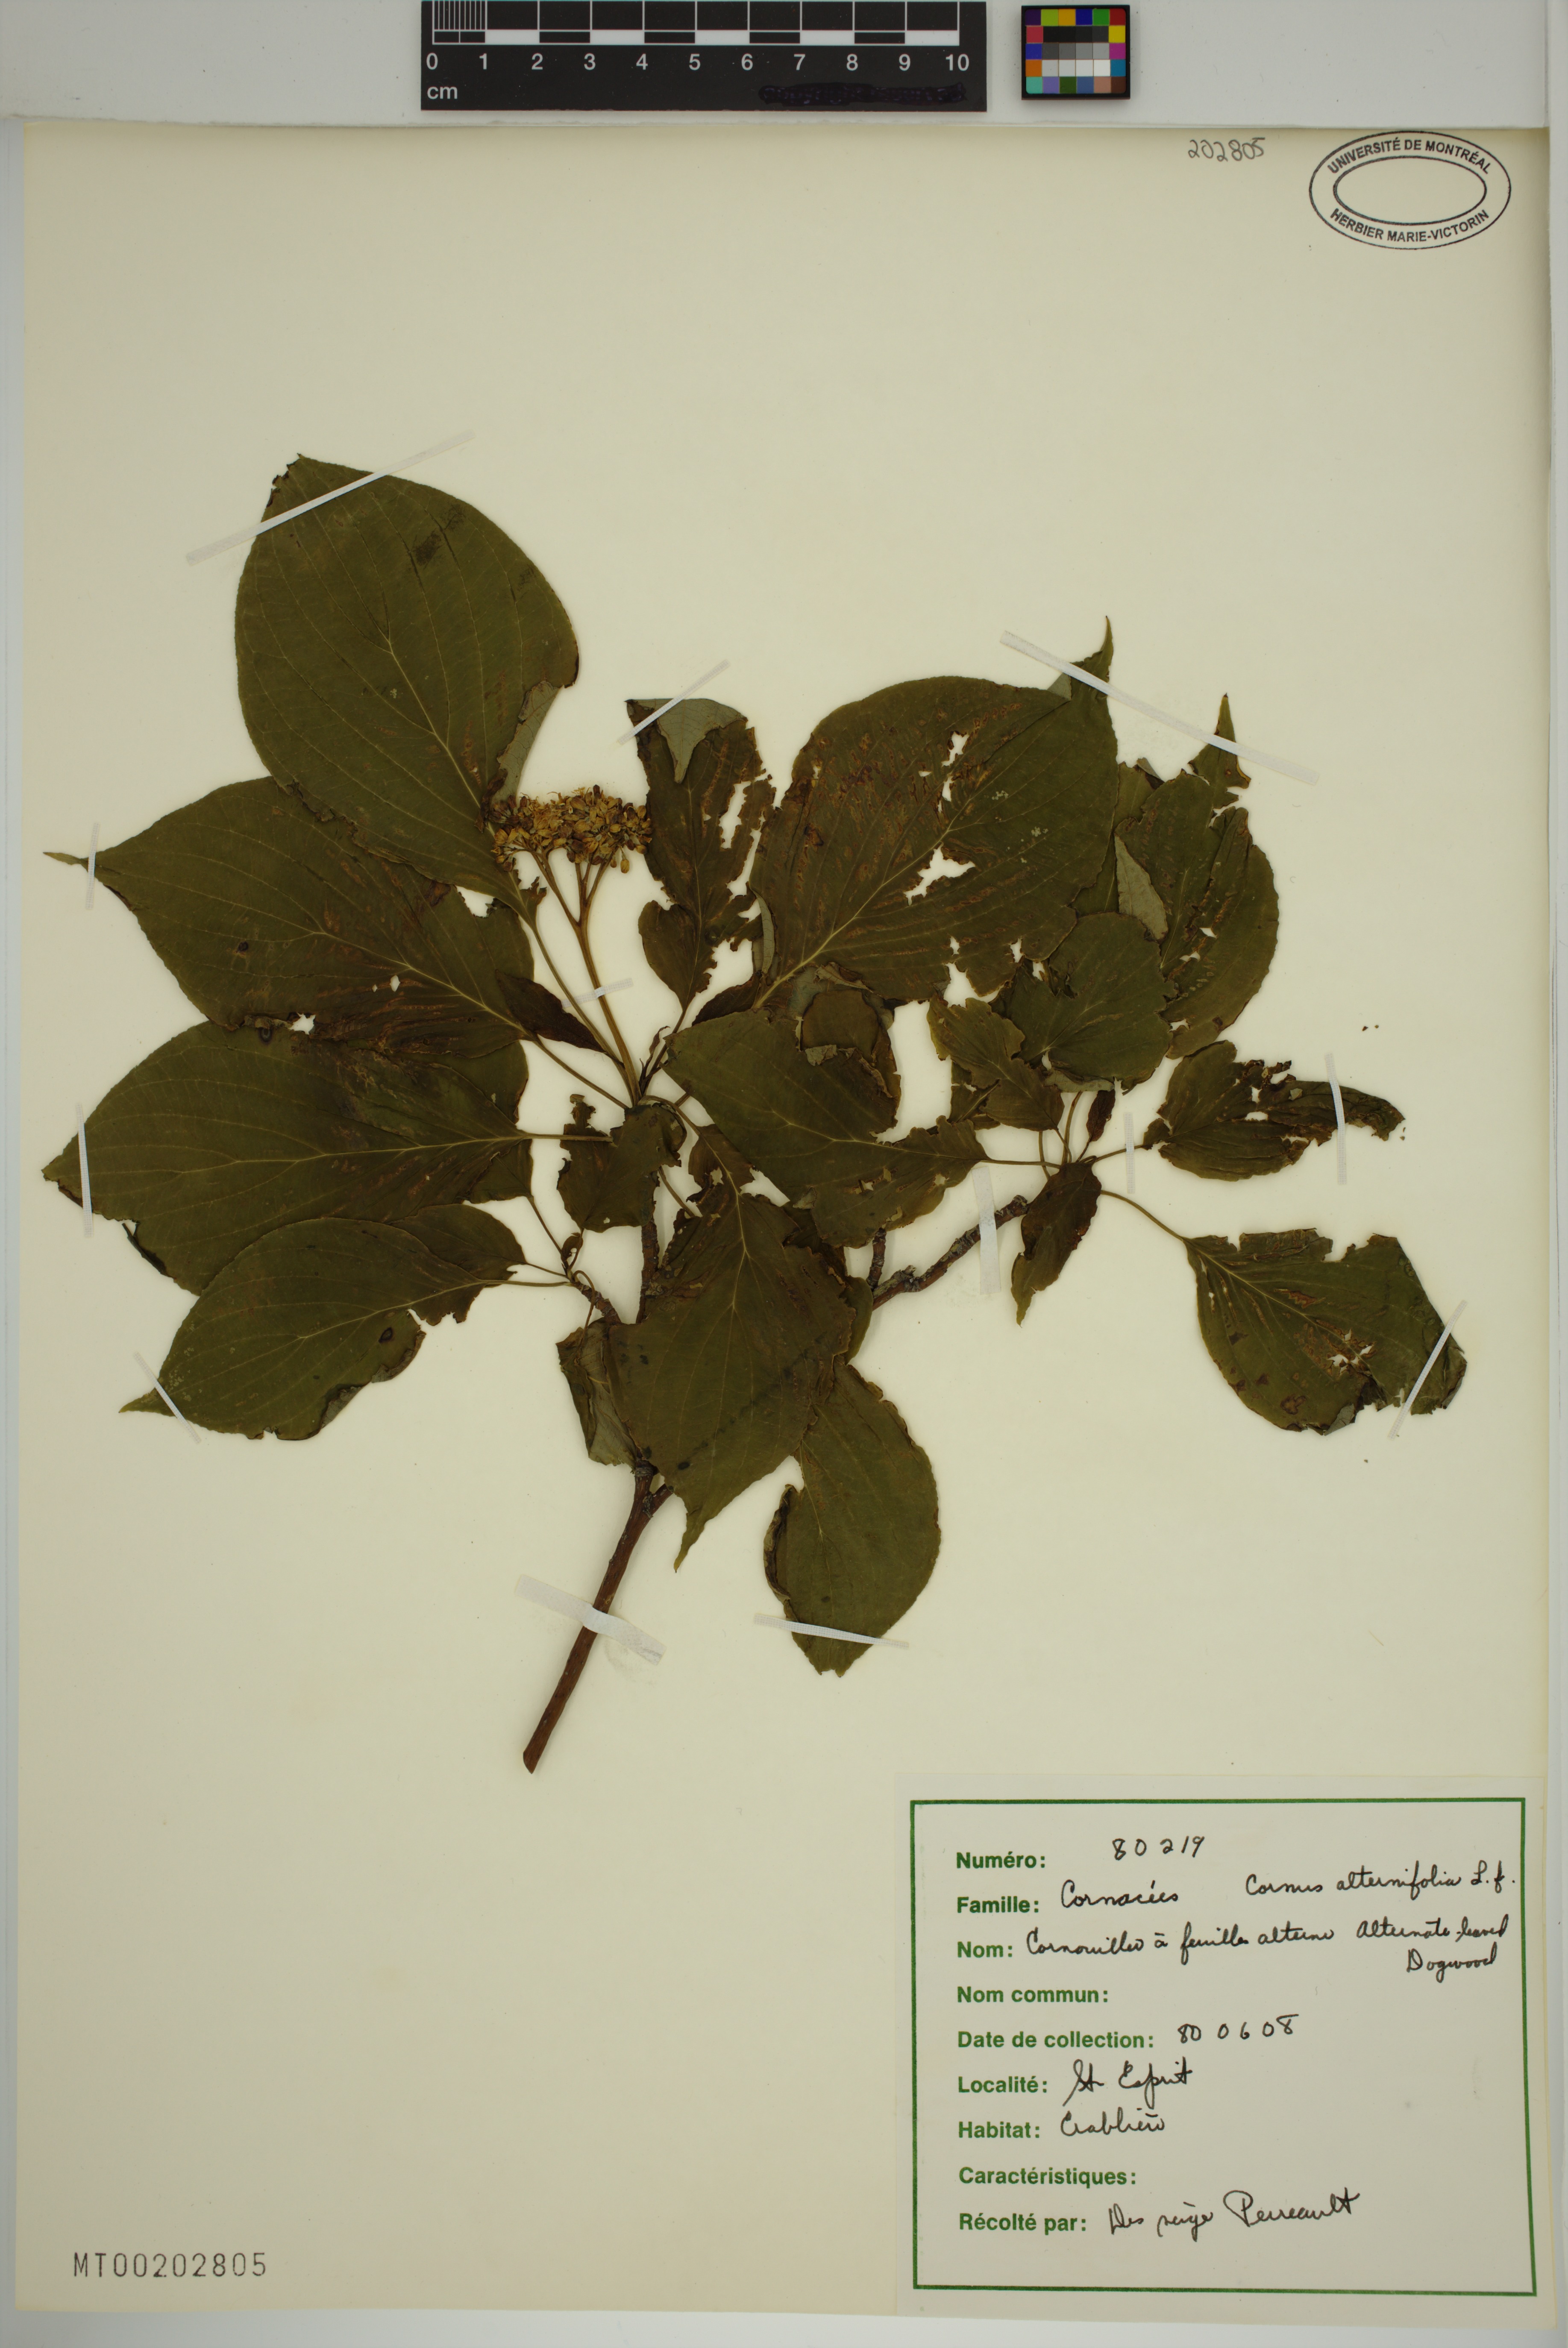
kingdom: Plantae
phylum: Tracheophyta
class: Magnoliopsida
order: Cornales
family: Cornaceae
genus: Cornus
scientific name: Cornus alternifolia
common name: Pagoda dogwood
